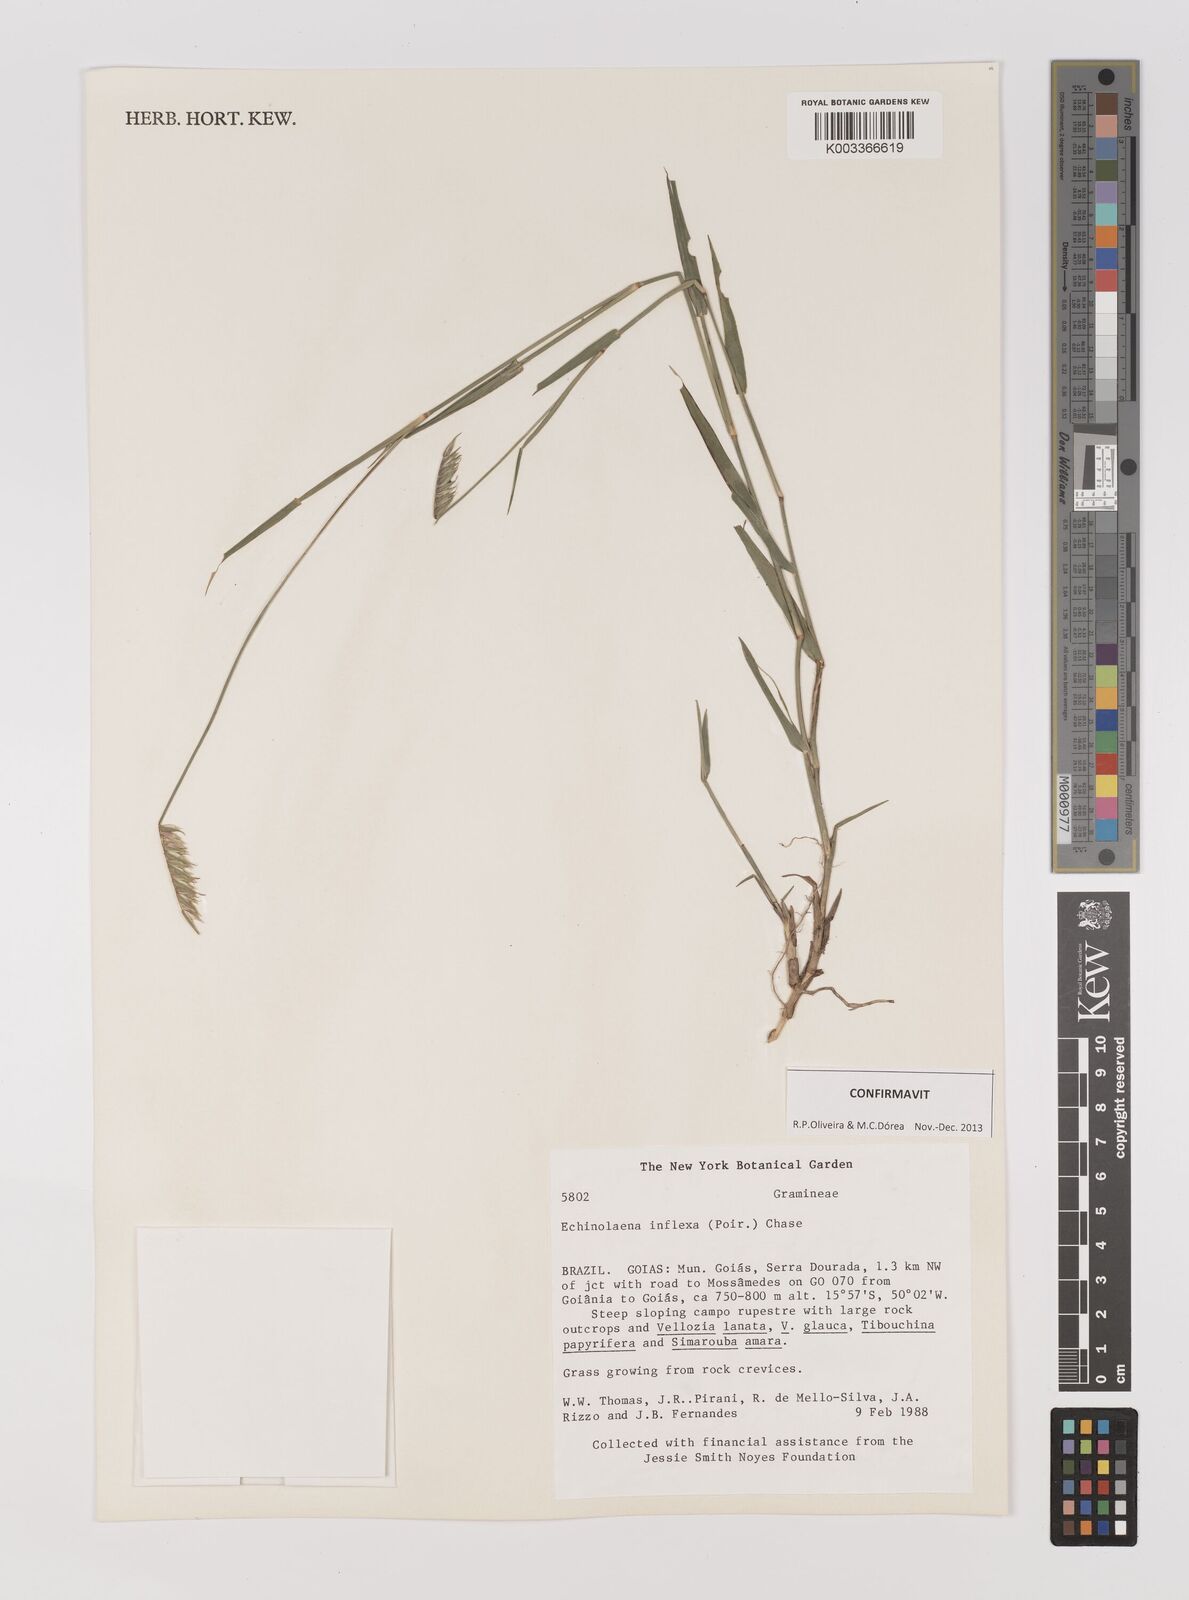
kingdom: Plantae
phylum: Tracheophyta
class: Liliopsida
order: Poales
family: Poaceae
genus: Echinolaena
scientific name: Echinolaena inflexa
